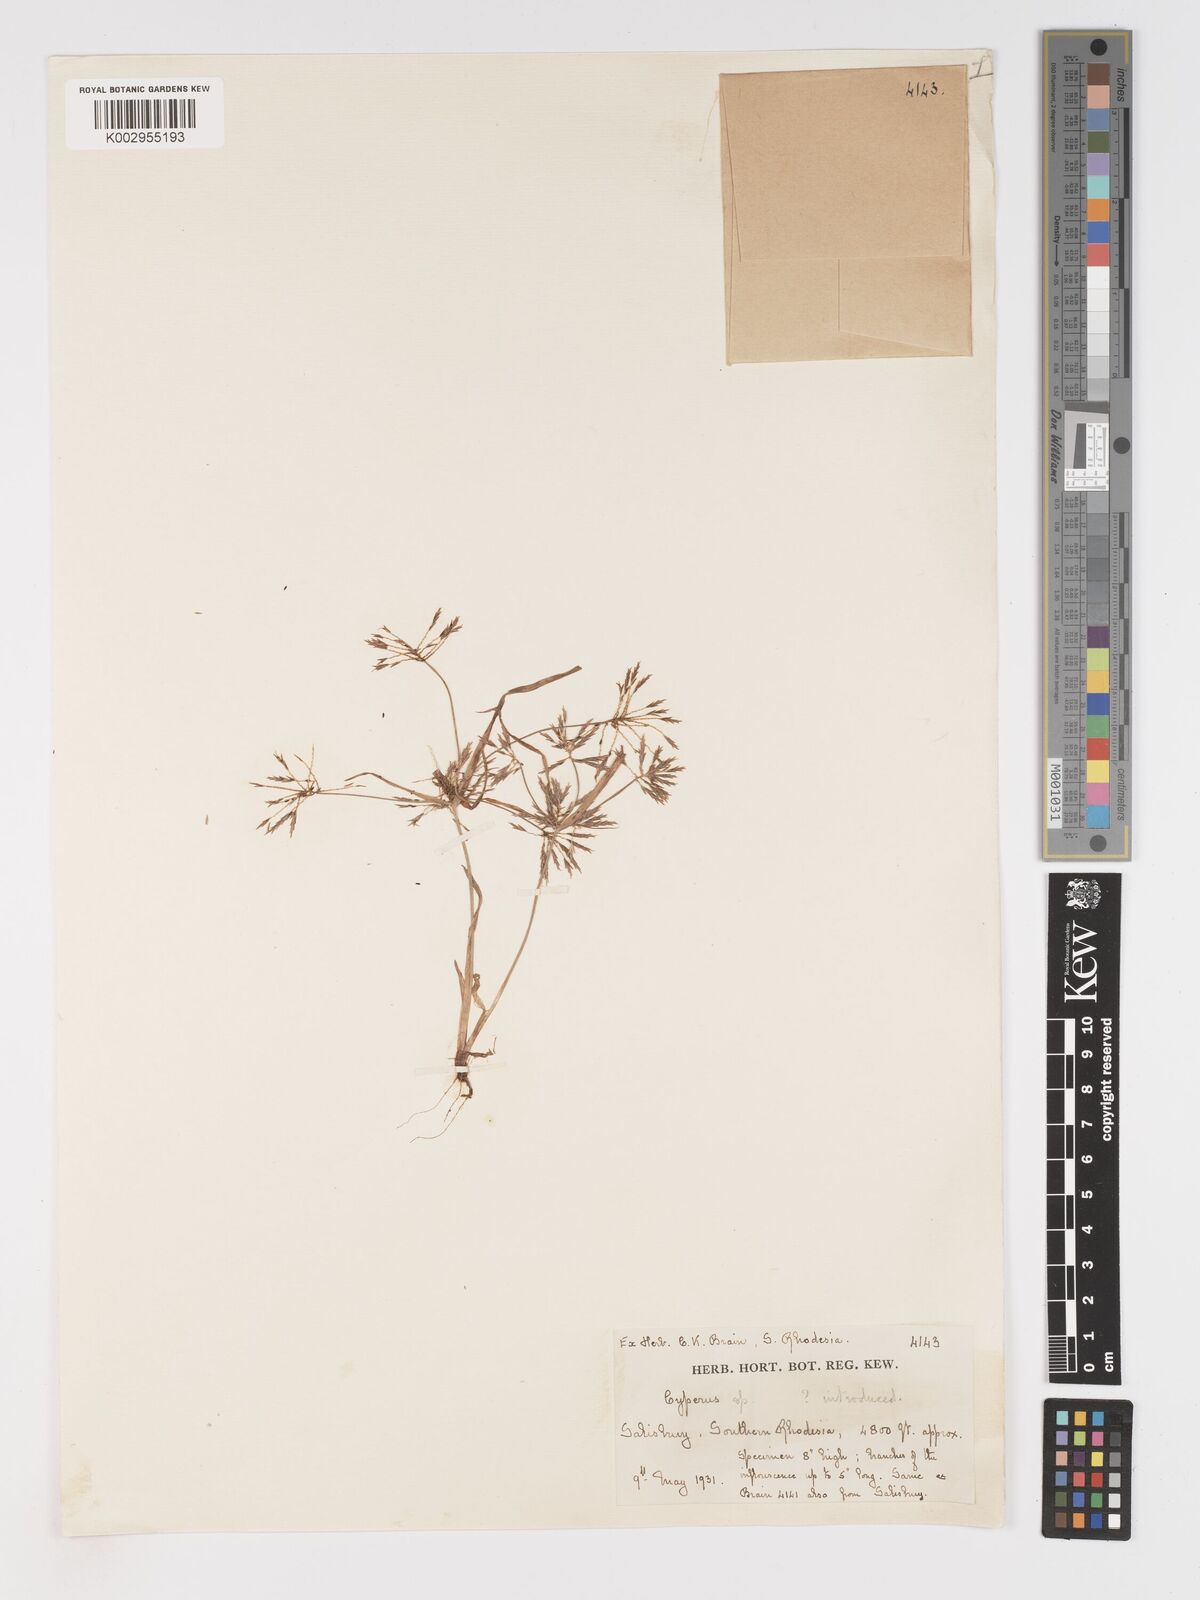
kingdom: Plantae
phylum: Tracheophyta
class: Liliopsida
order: Poales
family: Cyperaceae
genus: Cyperus
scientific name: Cyperus
